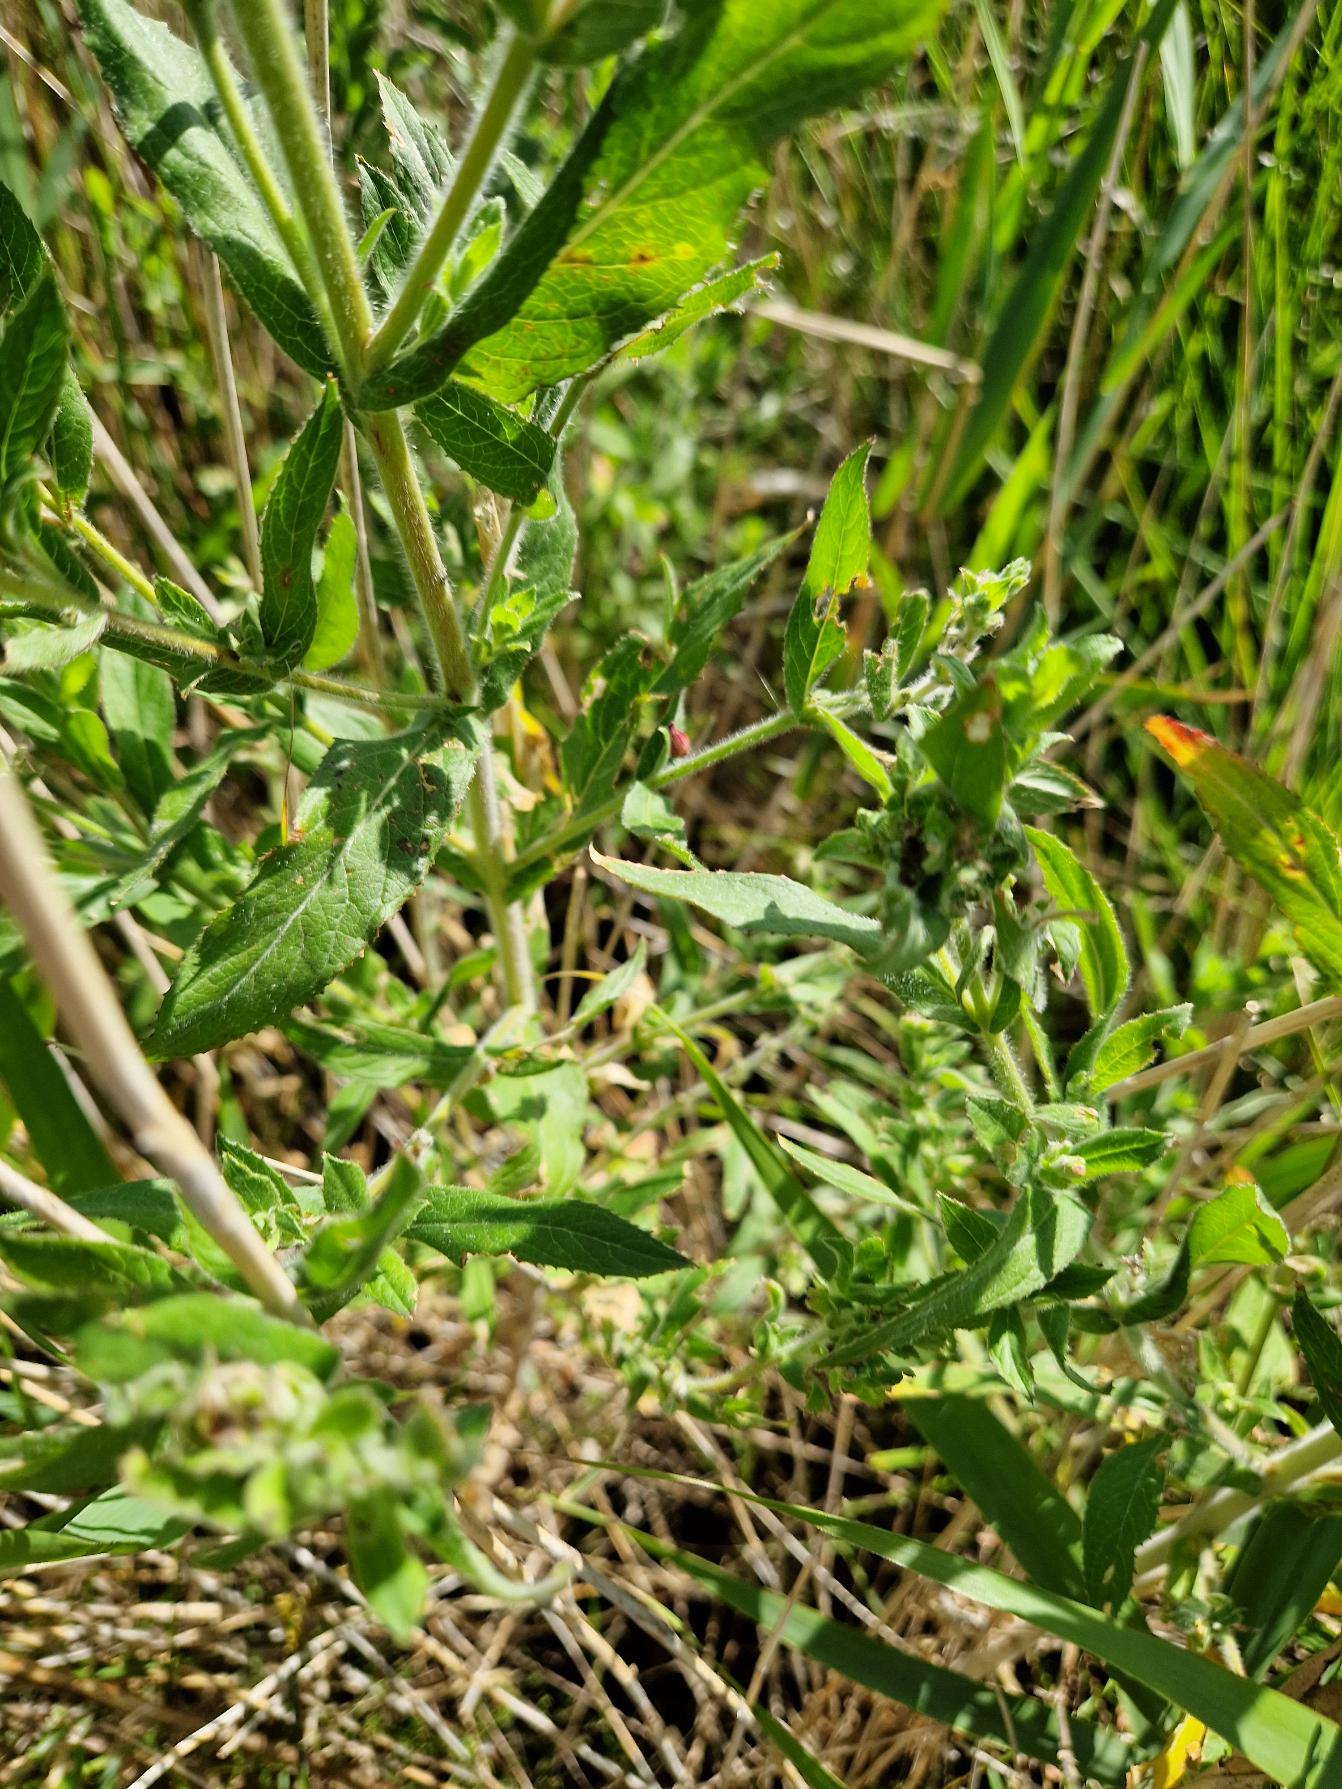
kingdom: Plantae
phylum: Tracheophyta
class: Magnoliopsida
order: Myrtales
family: Onagraceae
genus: Epilobium
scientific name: Epilobium hirsutum
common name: Lådden dueurt
